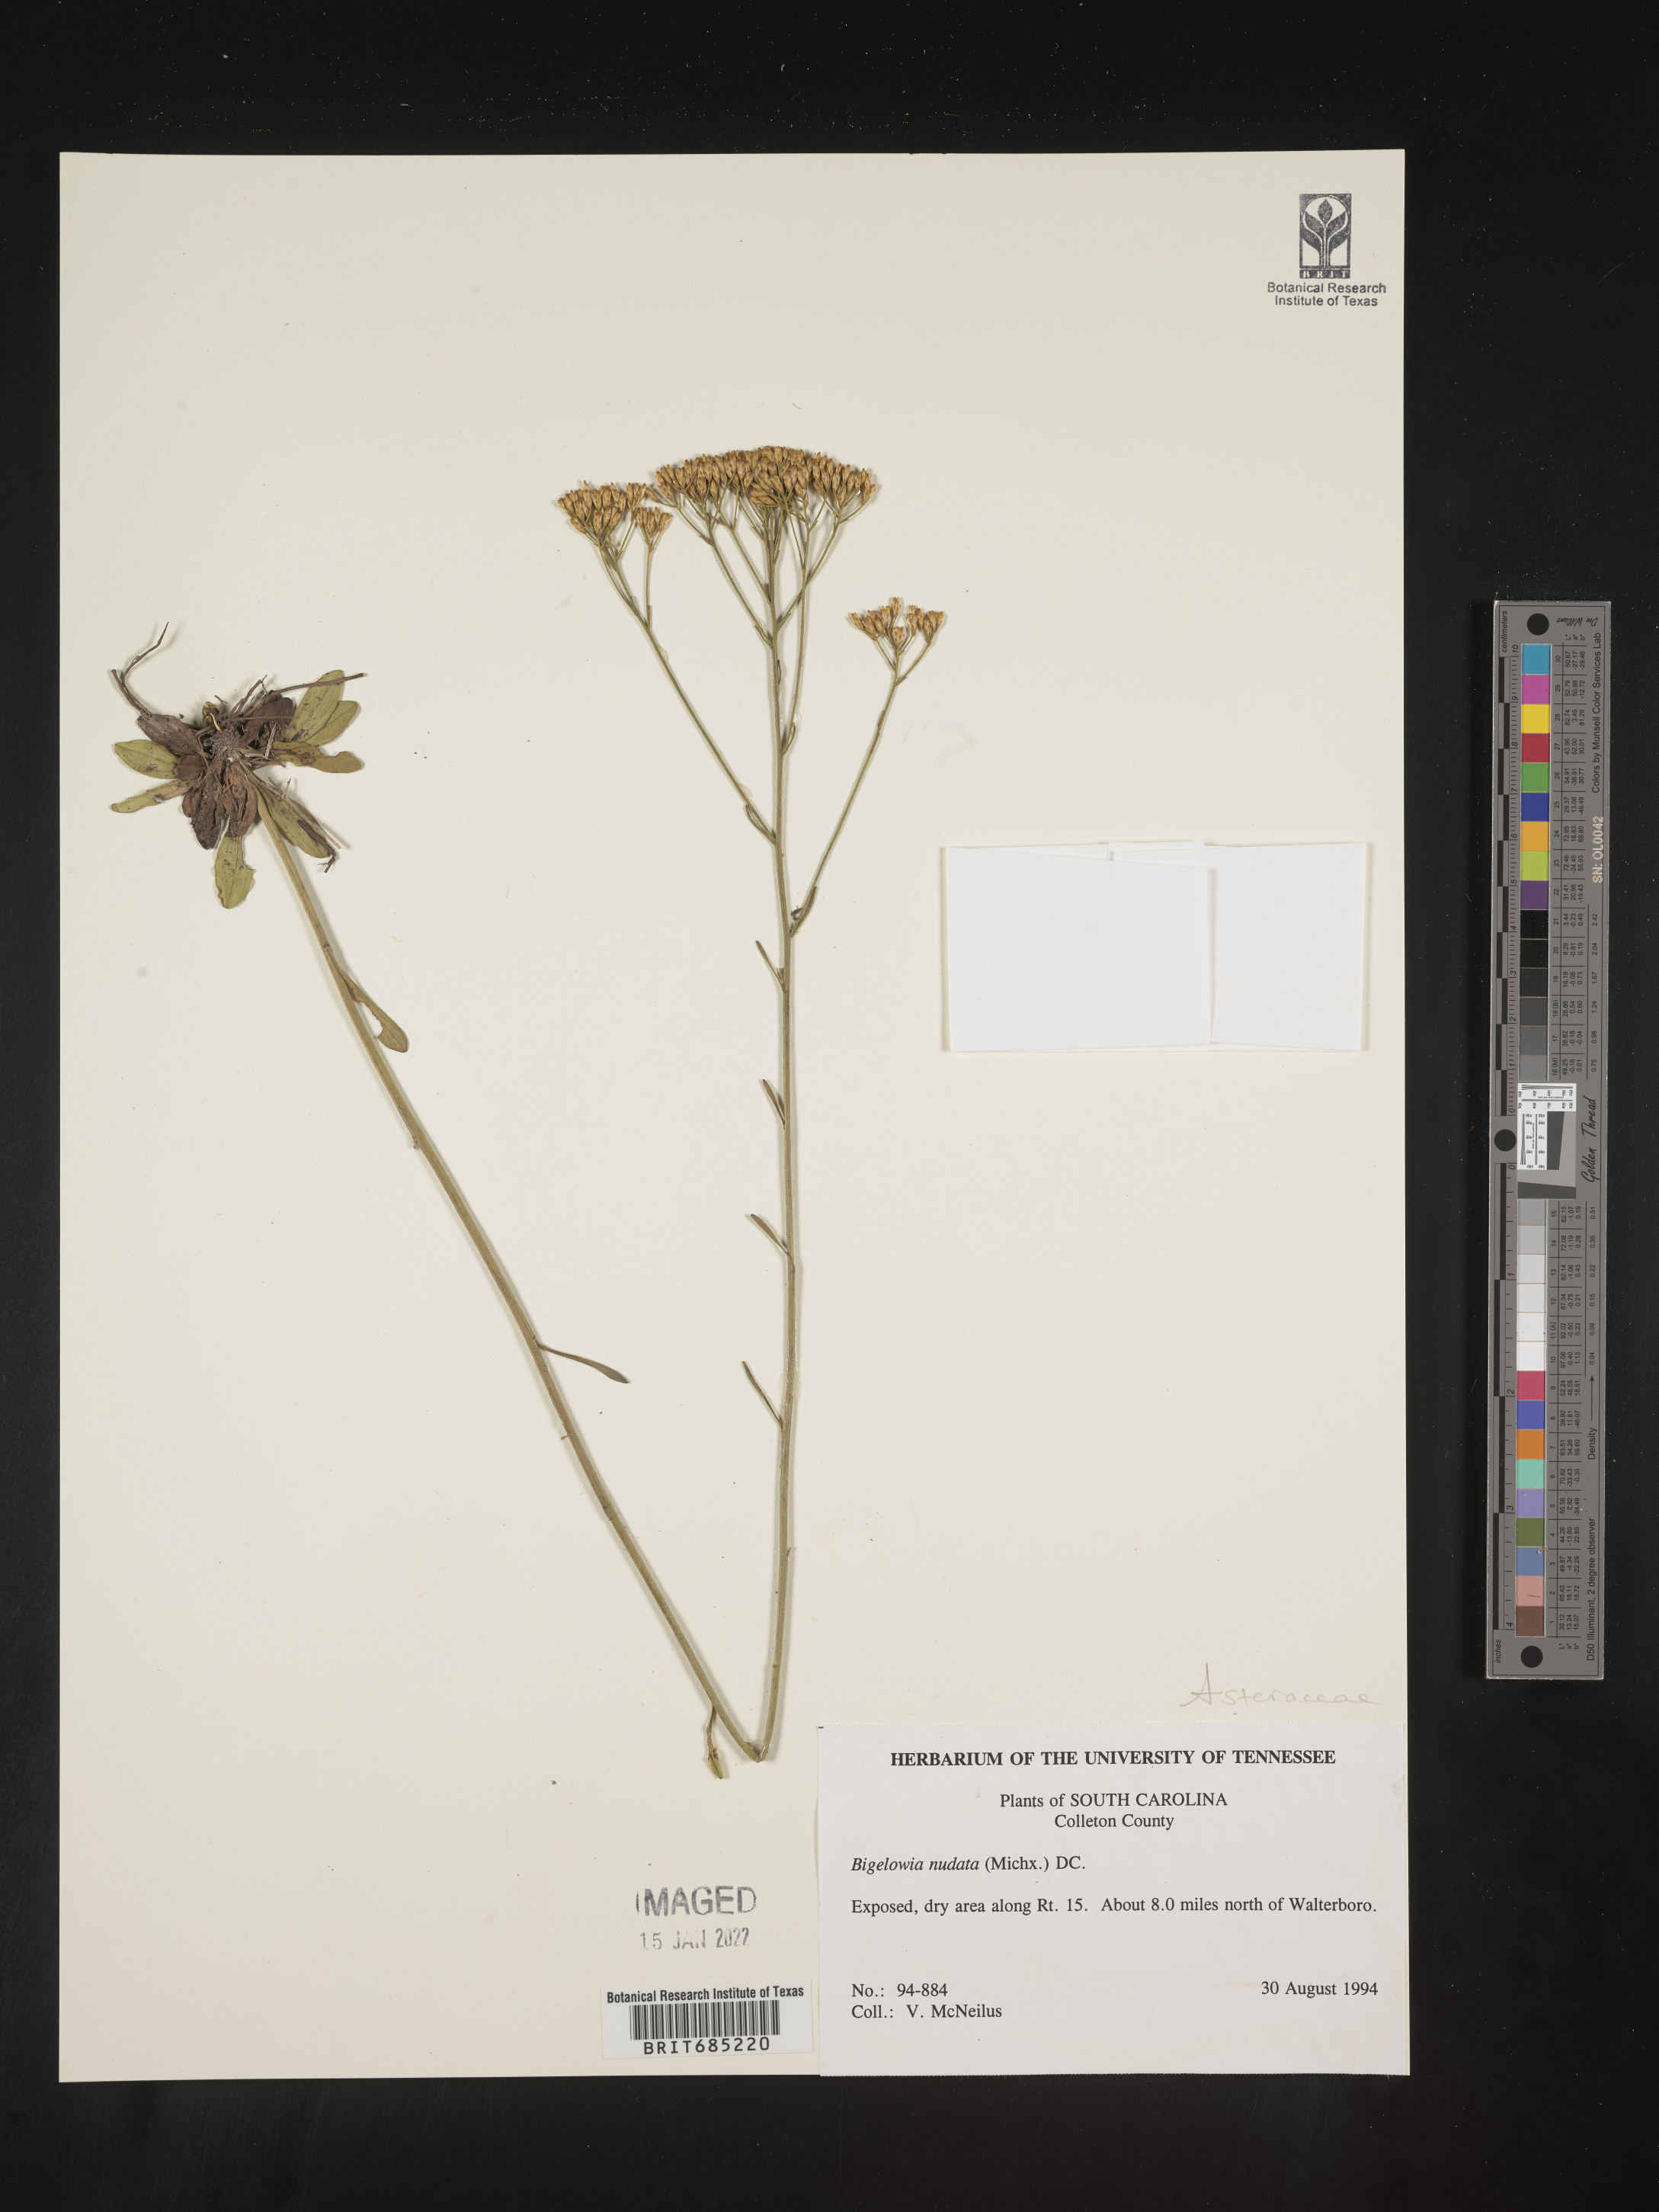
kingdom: Plantae
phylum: Tracheophyta
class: Magnoliopsida
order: Asterales
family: Asteraceae
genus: Bigelowia
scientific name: Bigelowia nudata
